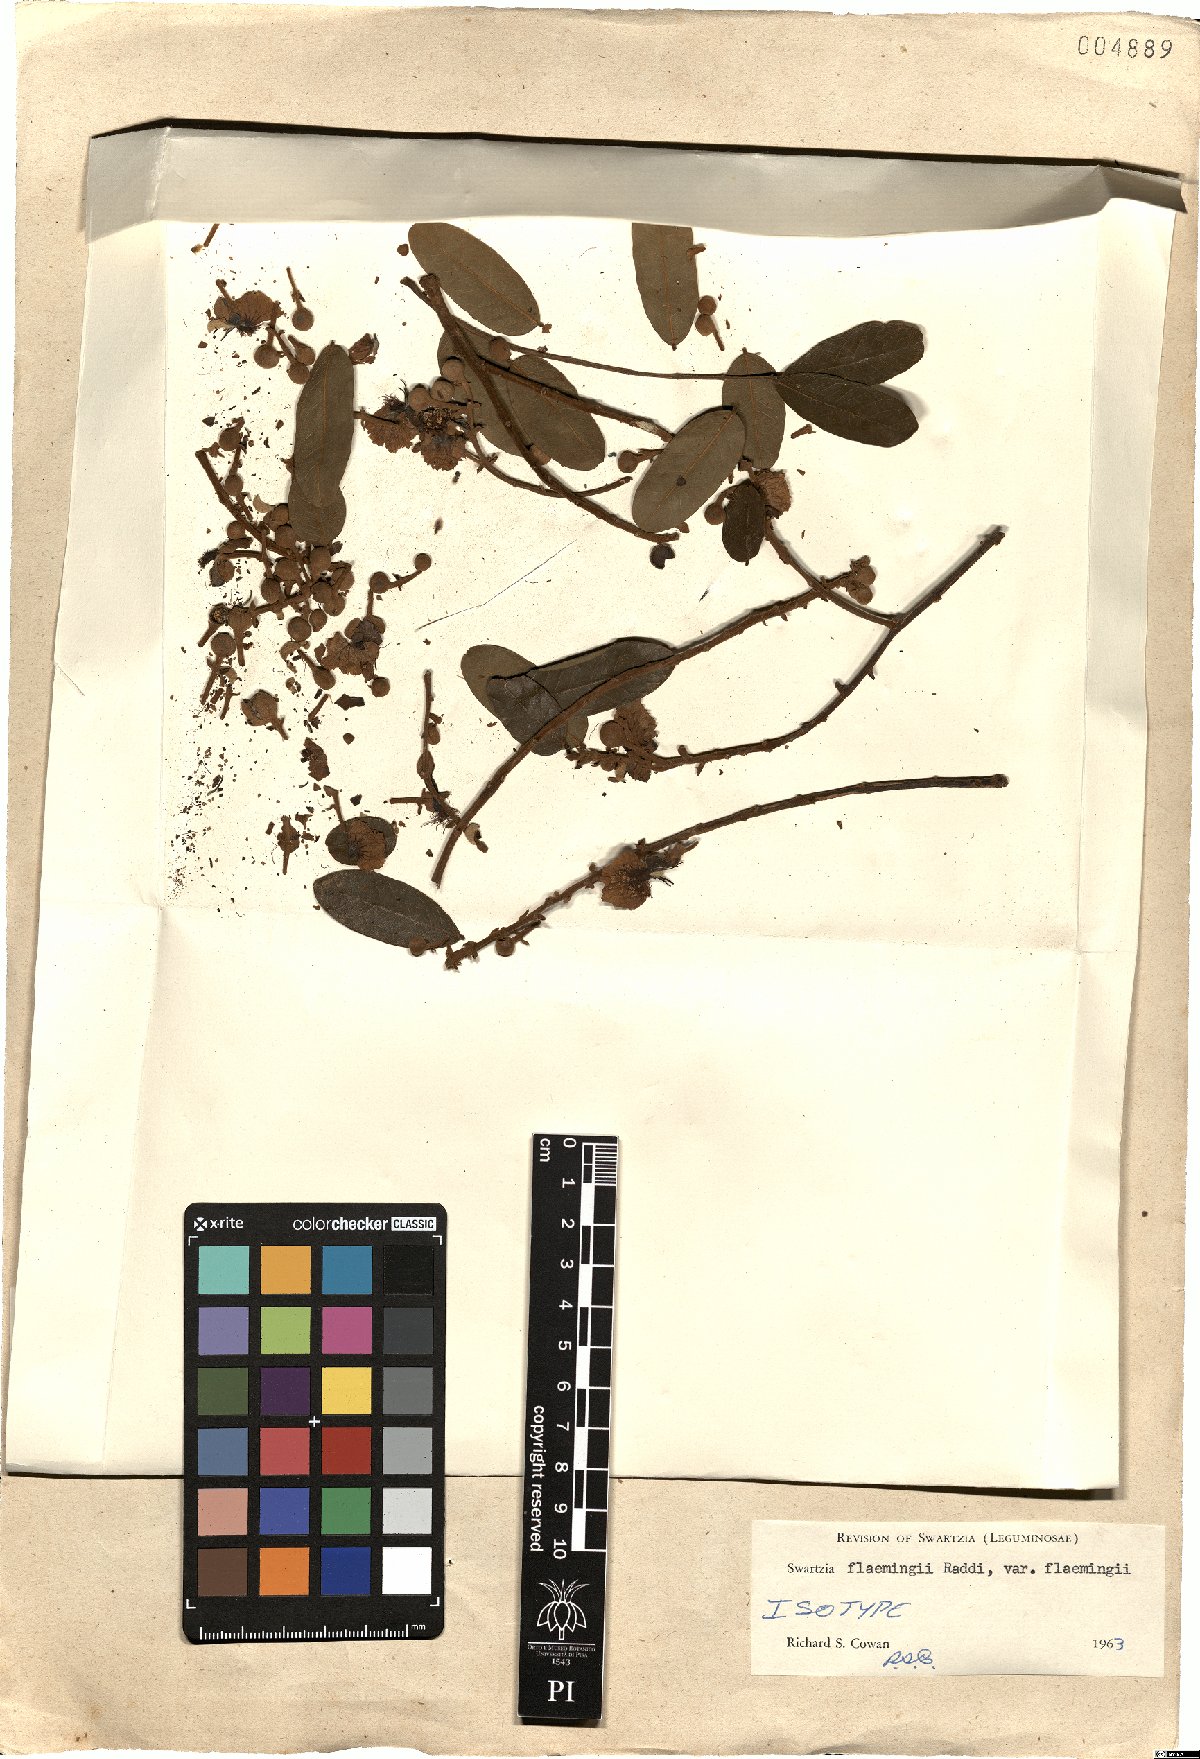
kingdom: Plantae
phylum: Tracheophyta
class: Magnoliopsida
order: Fabales
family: Fabaceae
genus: Swartzia
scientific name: Swartzia flaemingii
